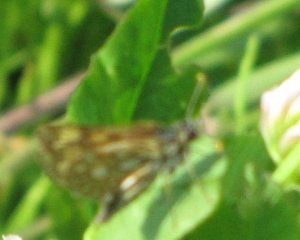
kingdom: Animalia
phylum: Arthropoda
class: Insecta
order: Lepidoptera
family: Hesperiidae
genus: Carterocephalus
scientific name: Carterocephalus palaemon
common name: Chequered Skipper
